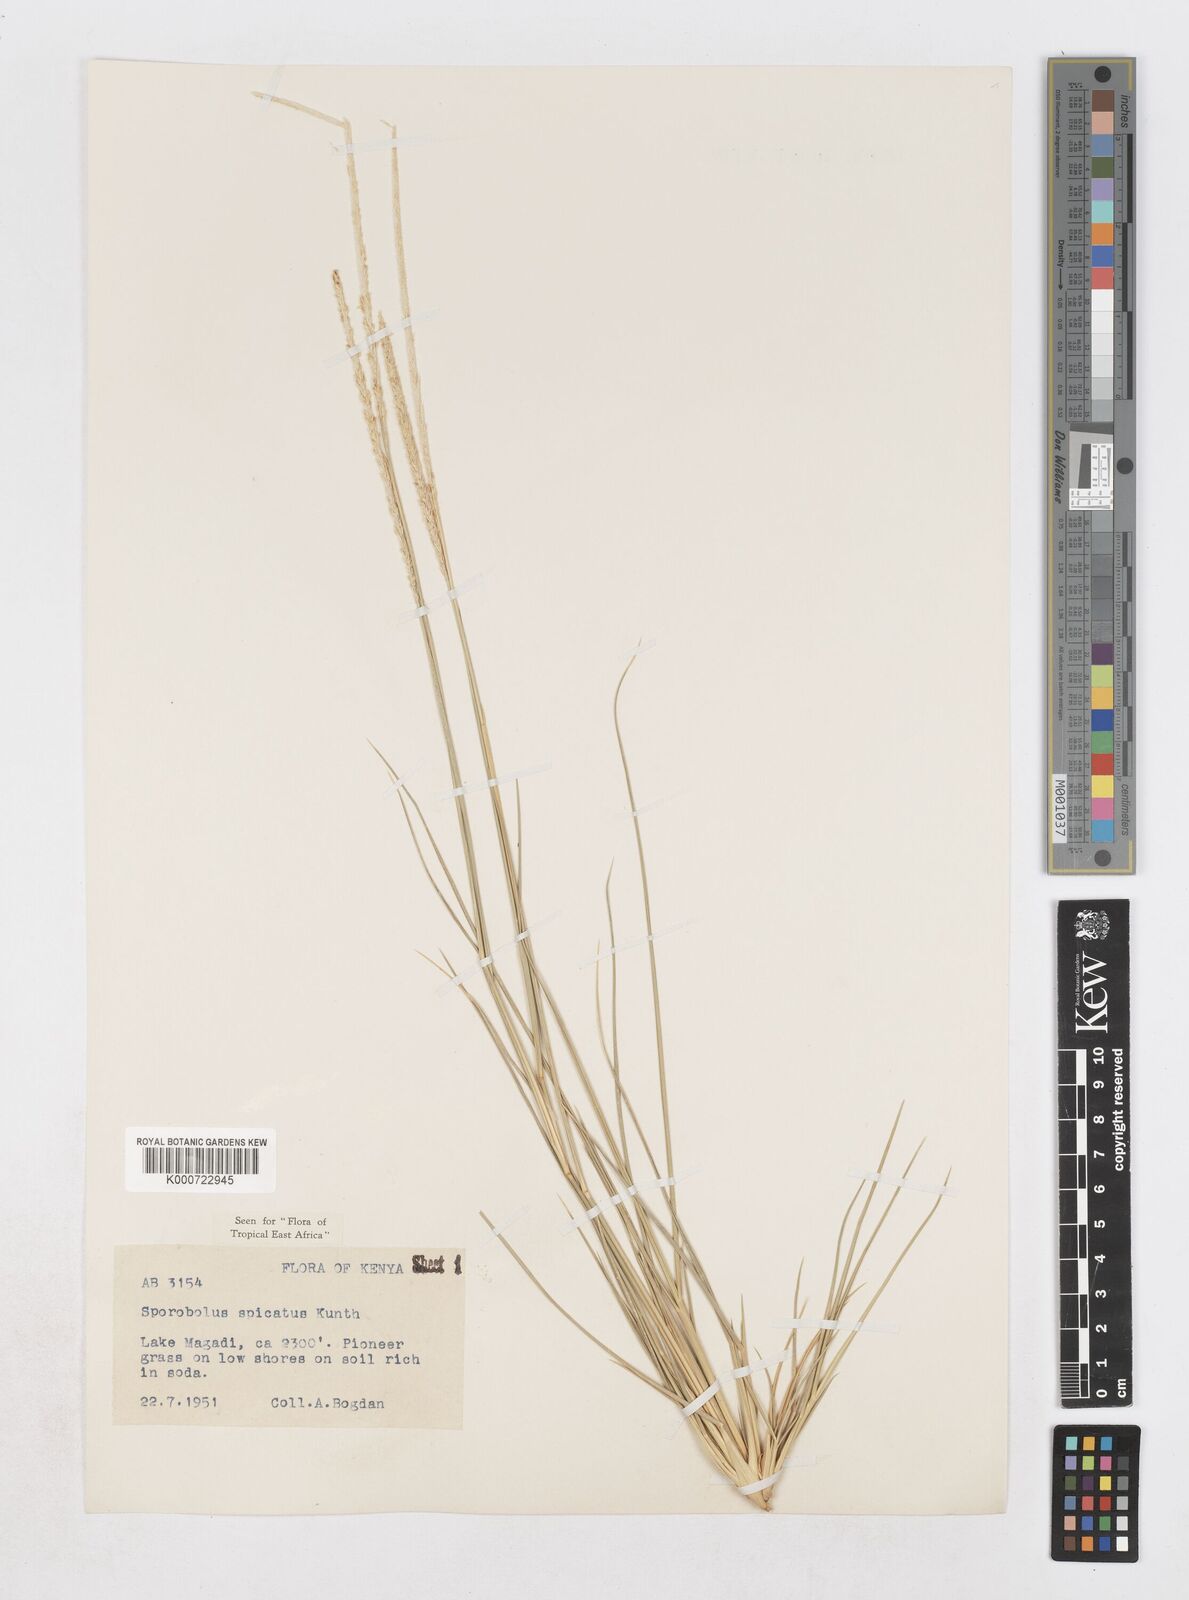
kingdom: Plantae
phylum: Tracheophyta
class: Liliopsida
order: Poales
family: Poaceae
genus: Sporobolus
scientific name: Sporobolus spicatus
